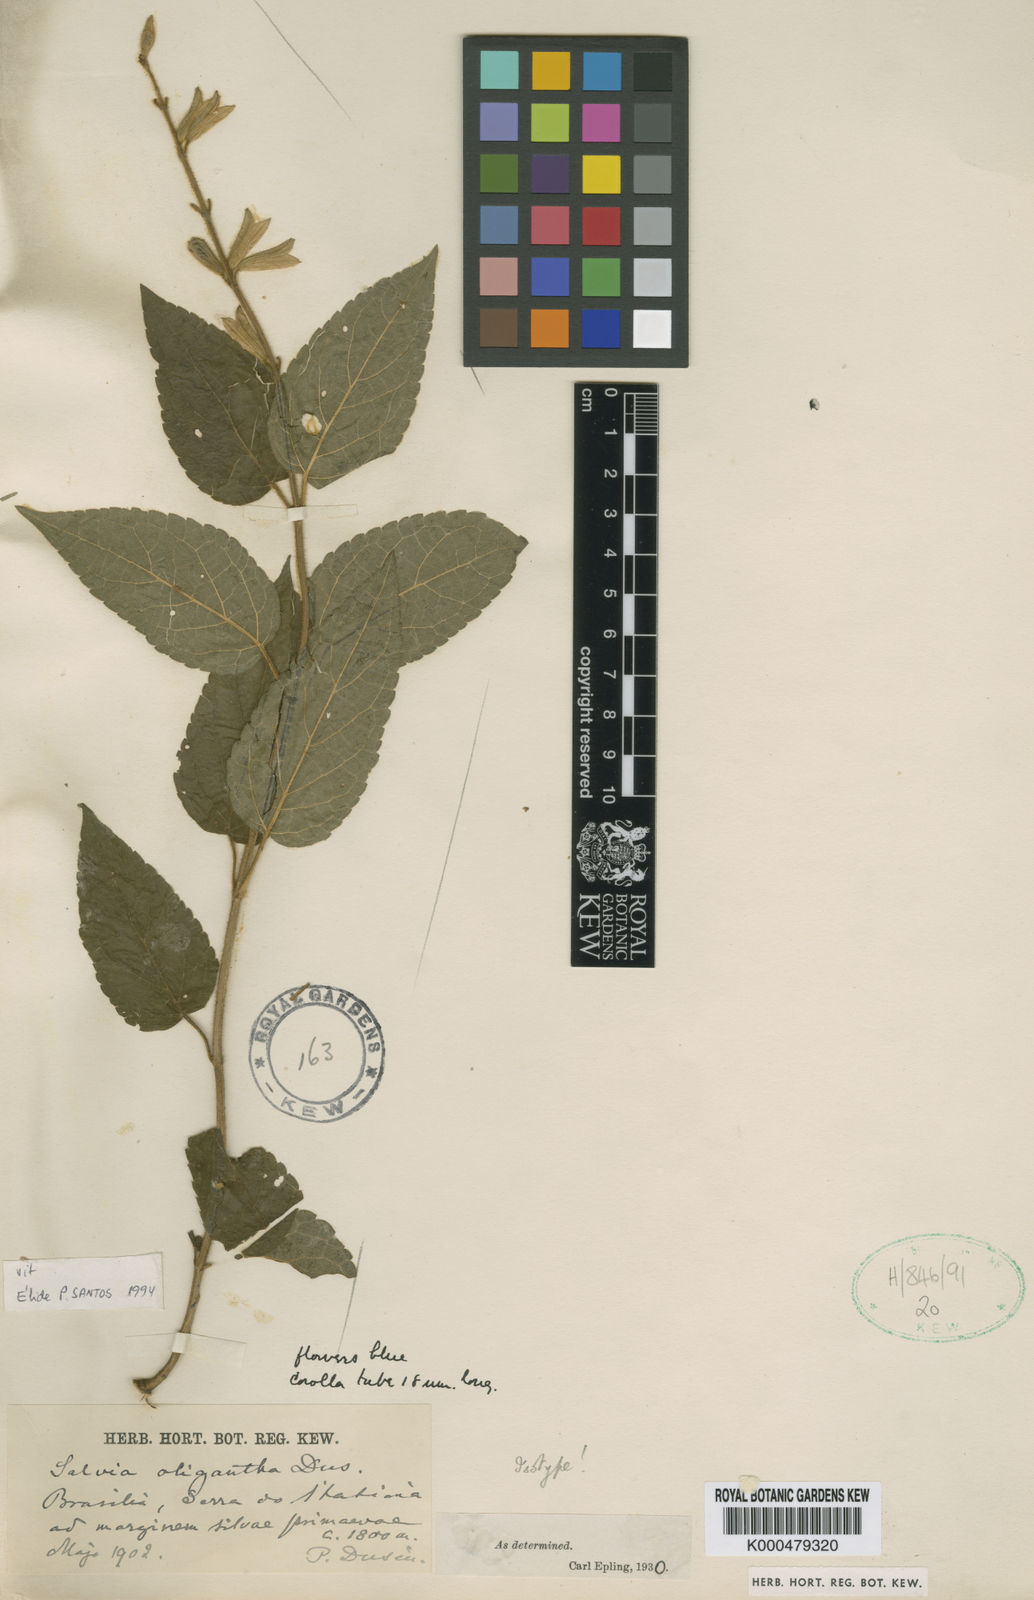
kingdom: Plantae
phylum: Tracheophyta
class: Magnoliopsida
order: Lamiales
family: Lamiaceae
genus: Salvia
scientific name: Salvia
